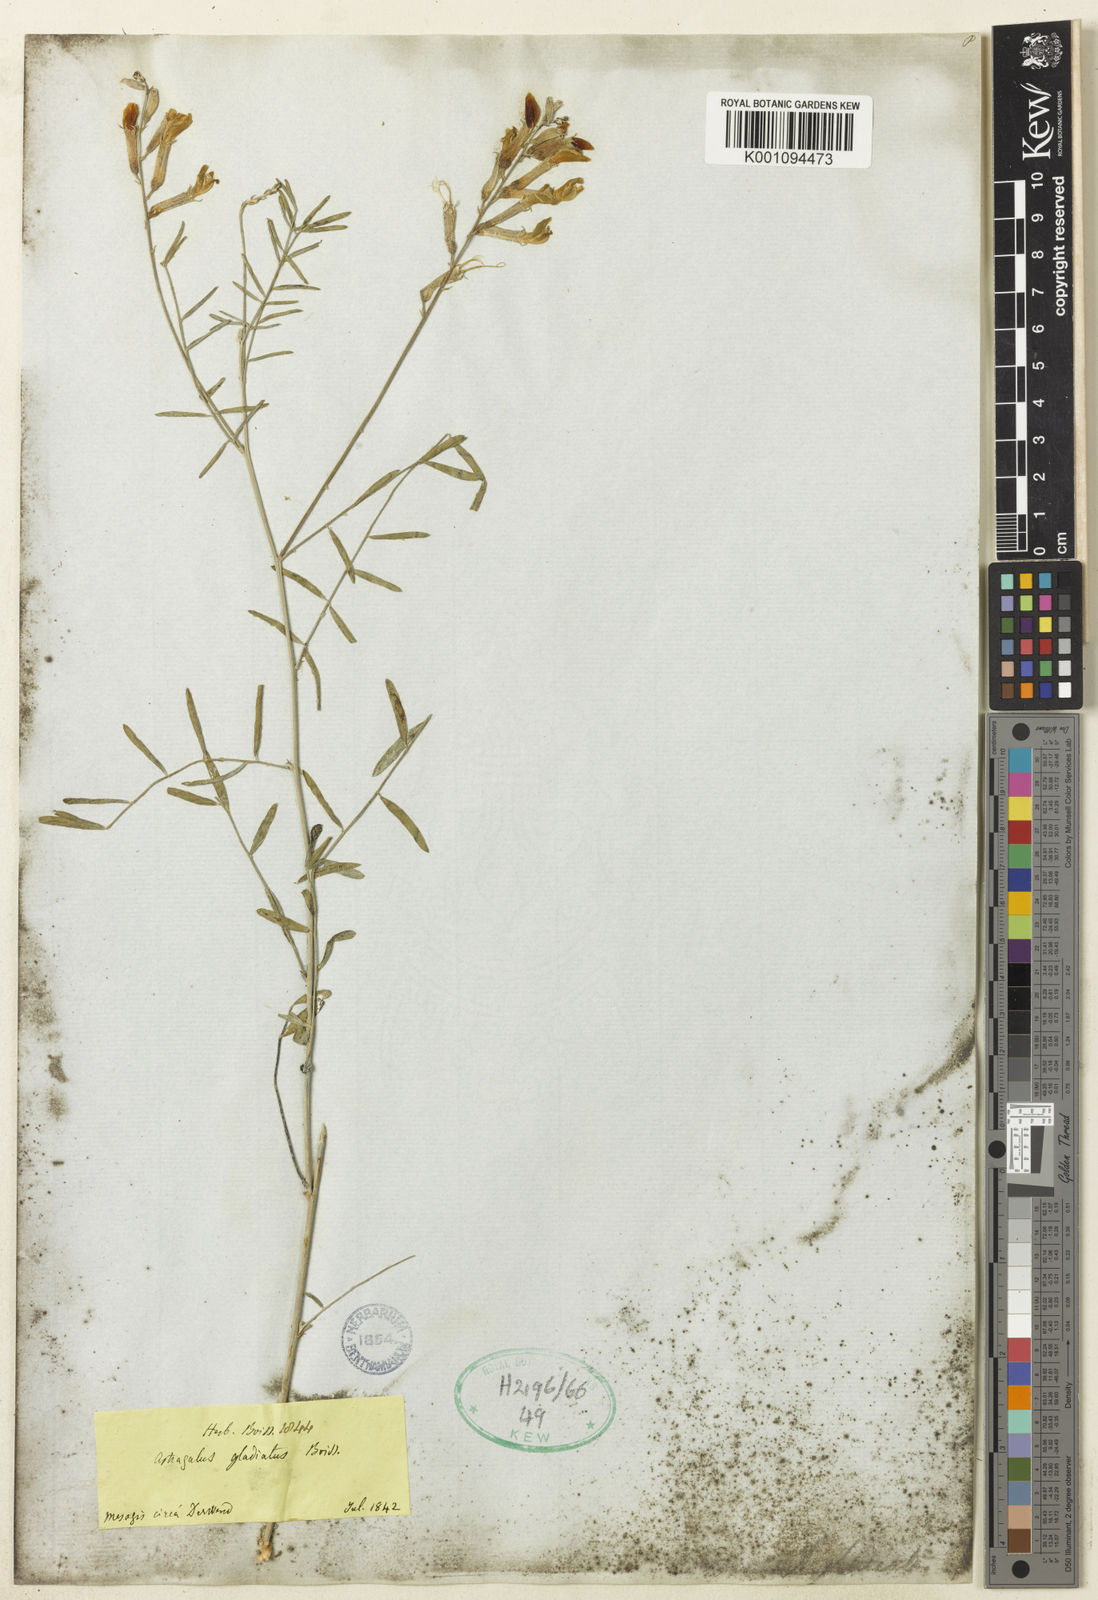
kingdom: Plantae
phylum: Tracheophyta
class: Magnoliopsida
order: Fabales
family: Fabaceae
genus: Astragalus
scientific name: Astragalus
